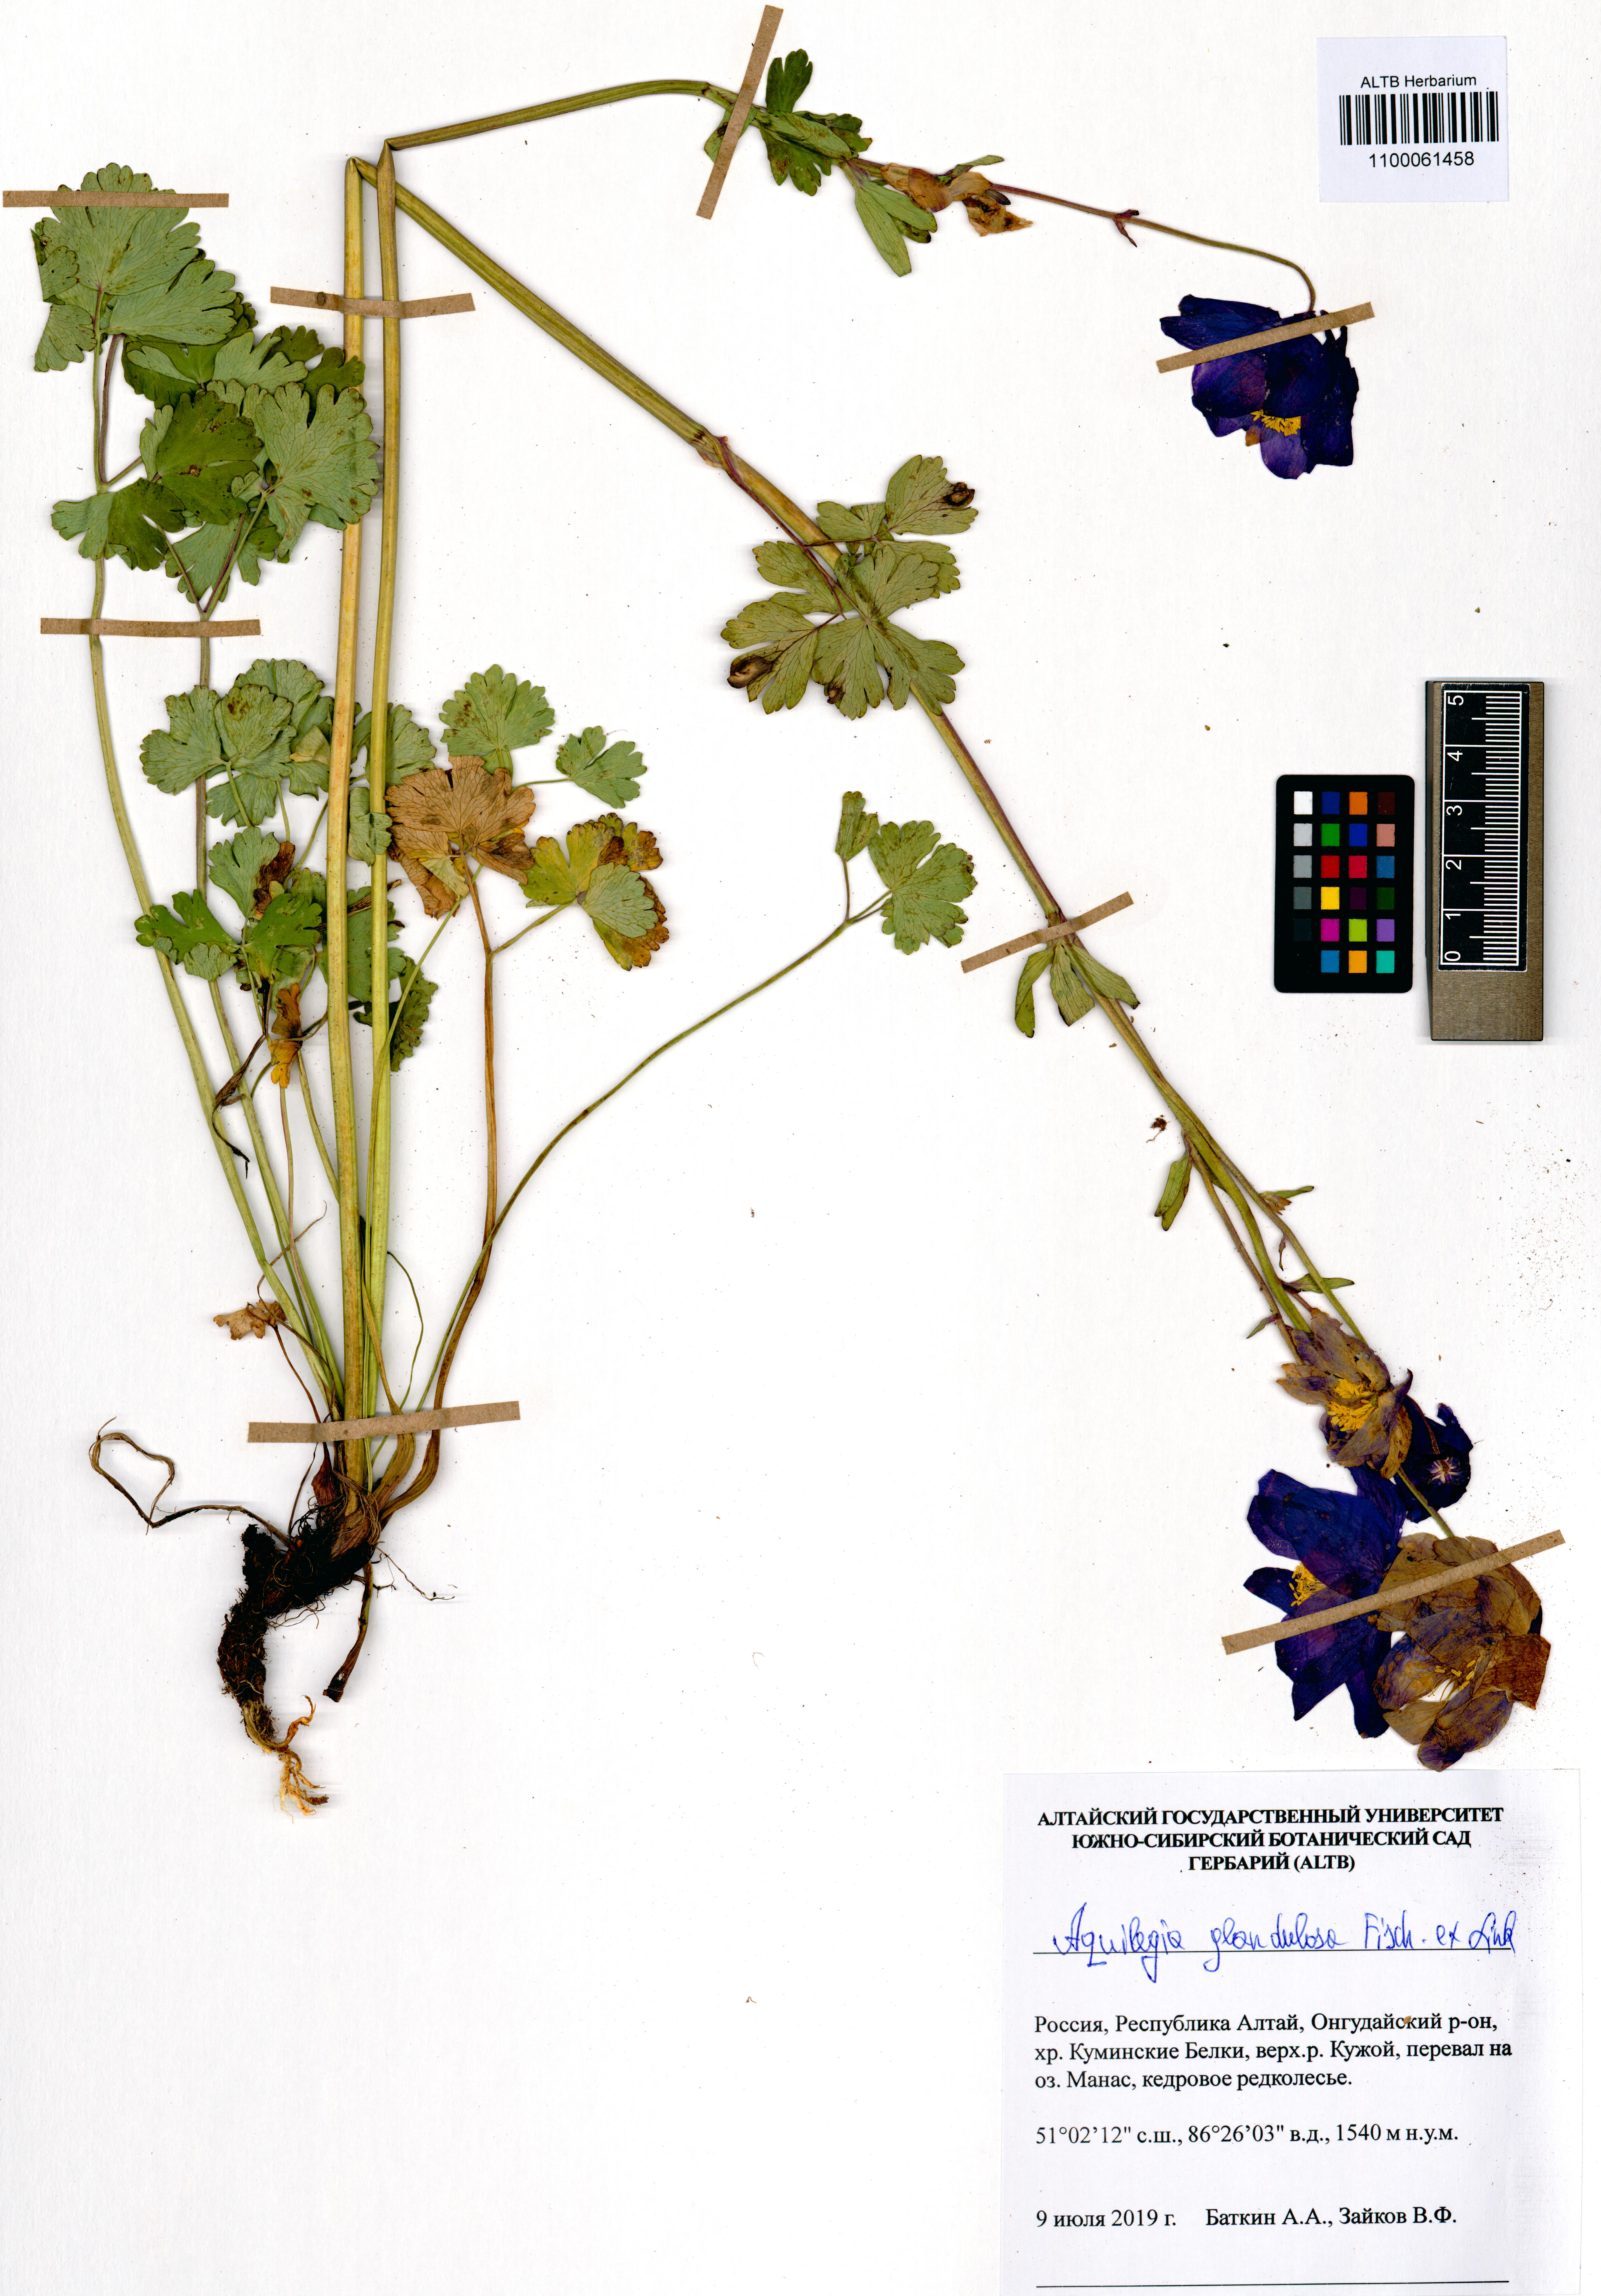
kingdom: Plantae
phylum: Tracheophyta
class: Magnoliopsida
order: Ranunculales
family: Ranunculaceae
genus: Aquilegia
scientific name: Aquilegia glandulosa
